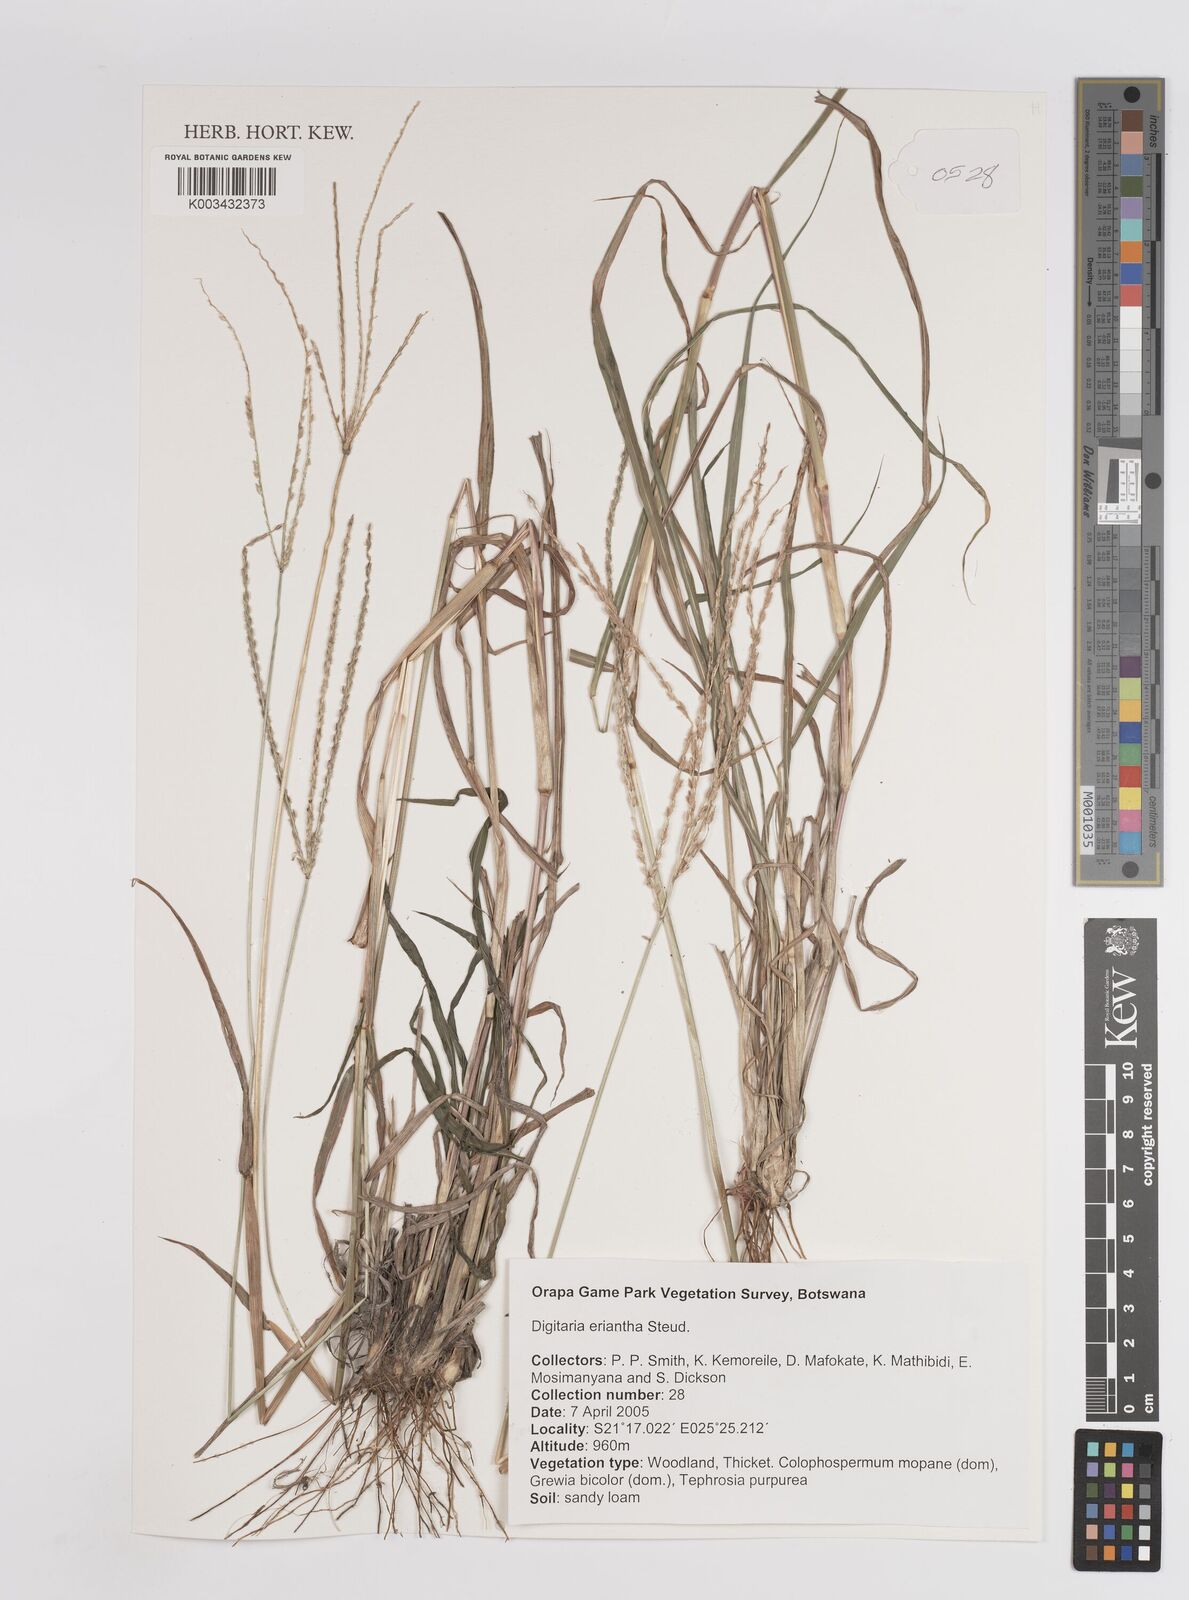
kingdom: Plantae
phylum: Tracheophyta
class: Liliopsida
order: Poales
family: Poaceae
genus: Digitaria
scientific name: Digitaria eriantha
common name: Digitgrass
